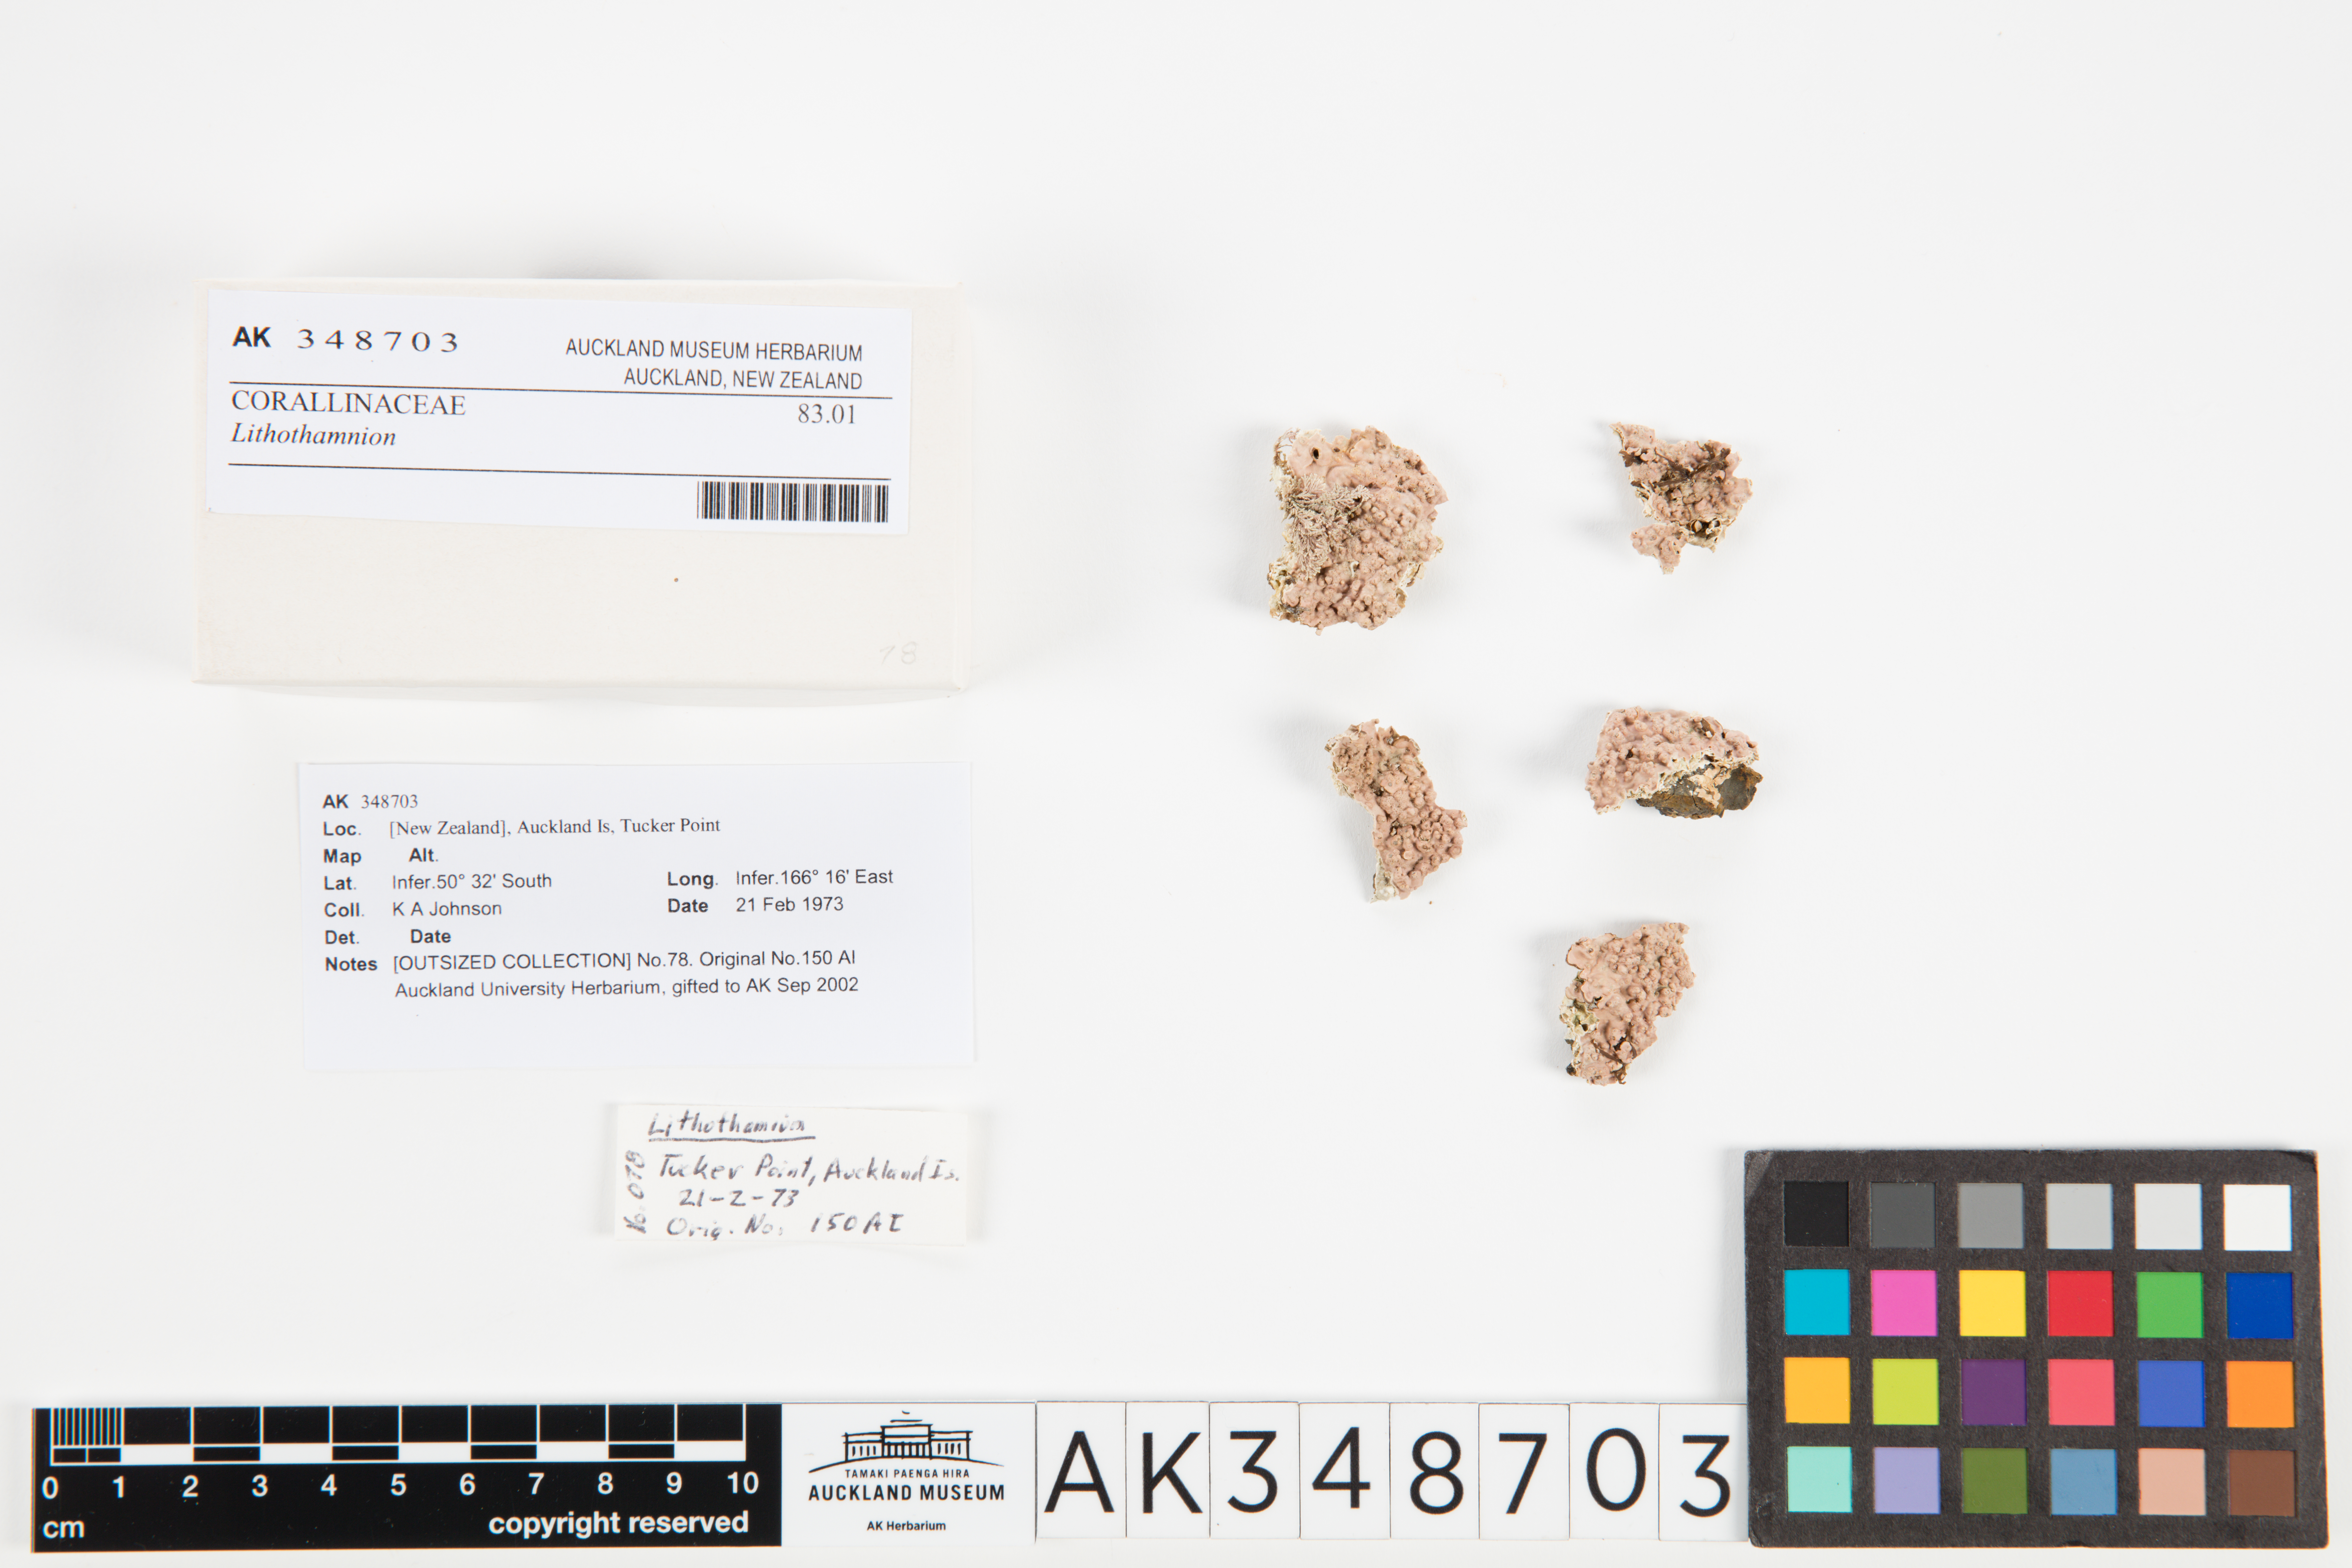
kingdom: Plantae
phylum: Rhodophyta
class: Florideophyceae
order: Corallinales
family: Hapalidiaceae
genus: Lithothamnion
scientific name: Lithothamnion
